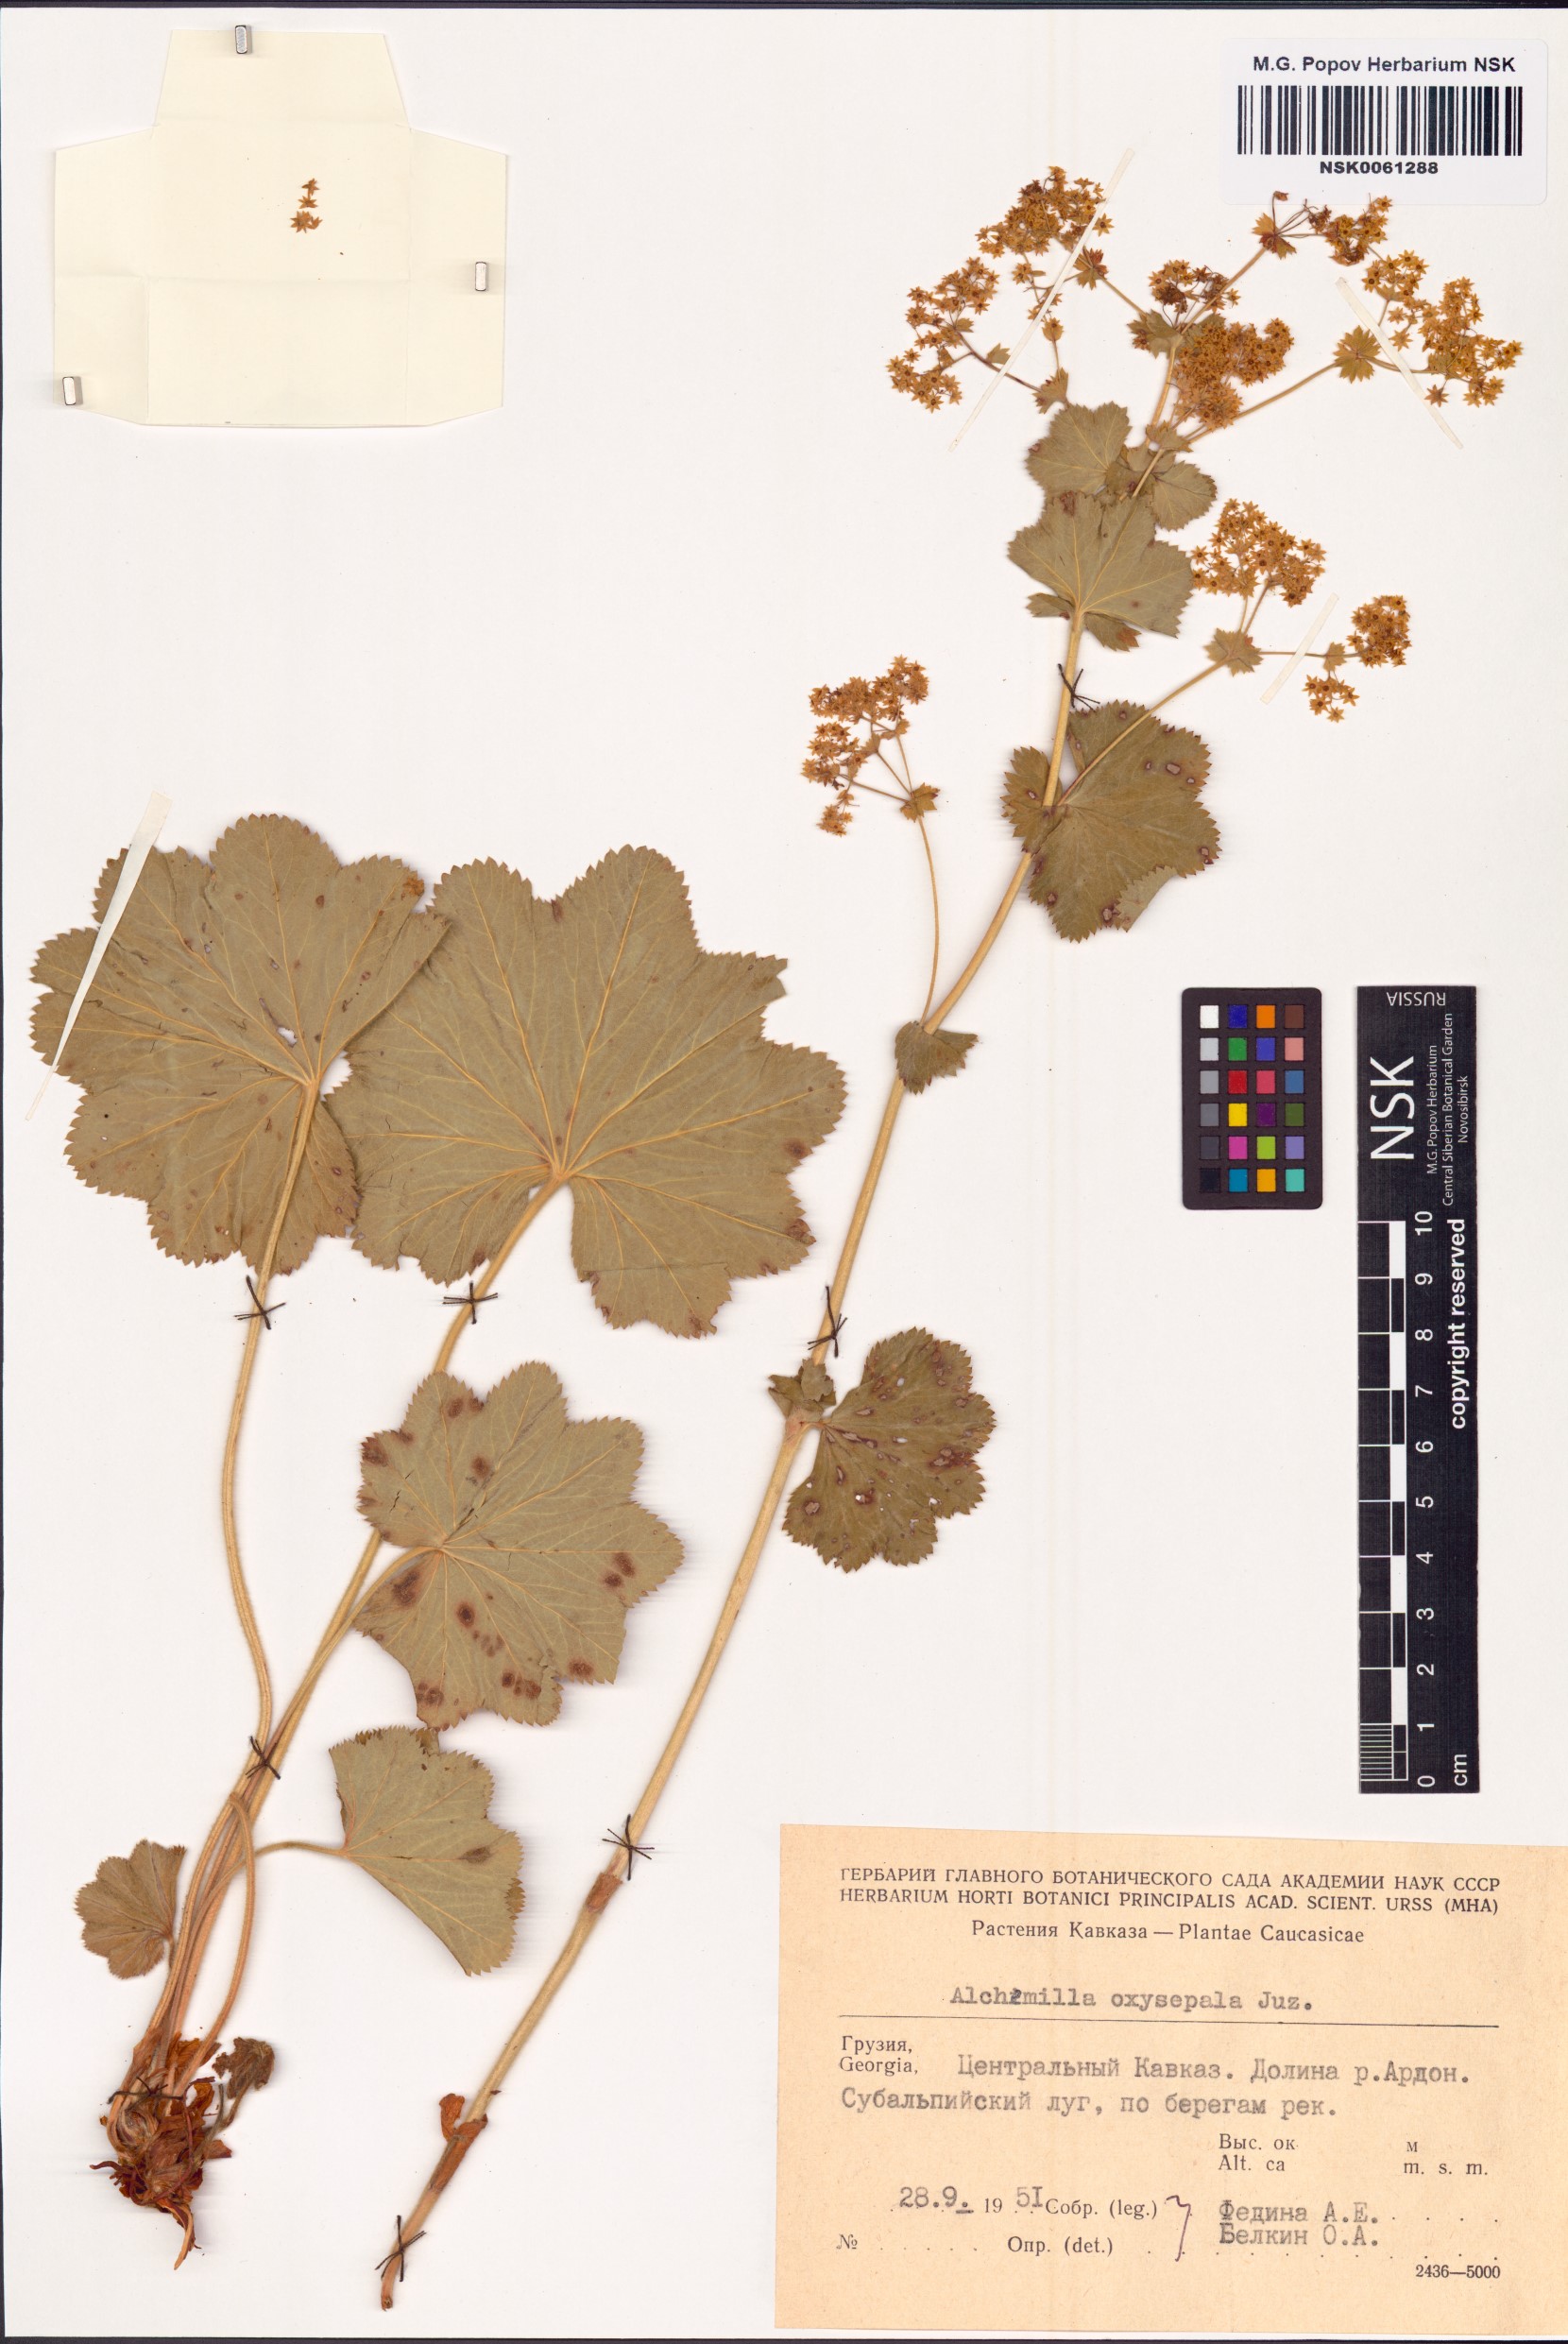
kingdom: Plantae
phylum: Tracheophyta
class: Magnoliopsida
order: Rosales
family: Rosaceae
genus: Alchemilla
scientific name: Alchemilla oxysepala
